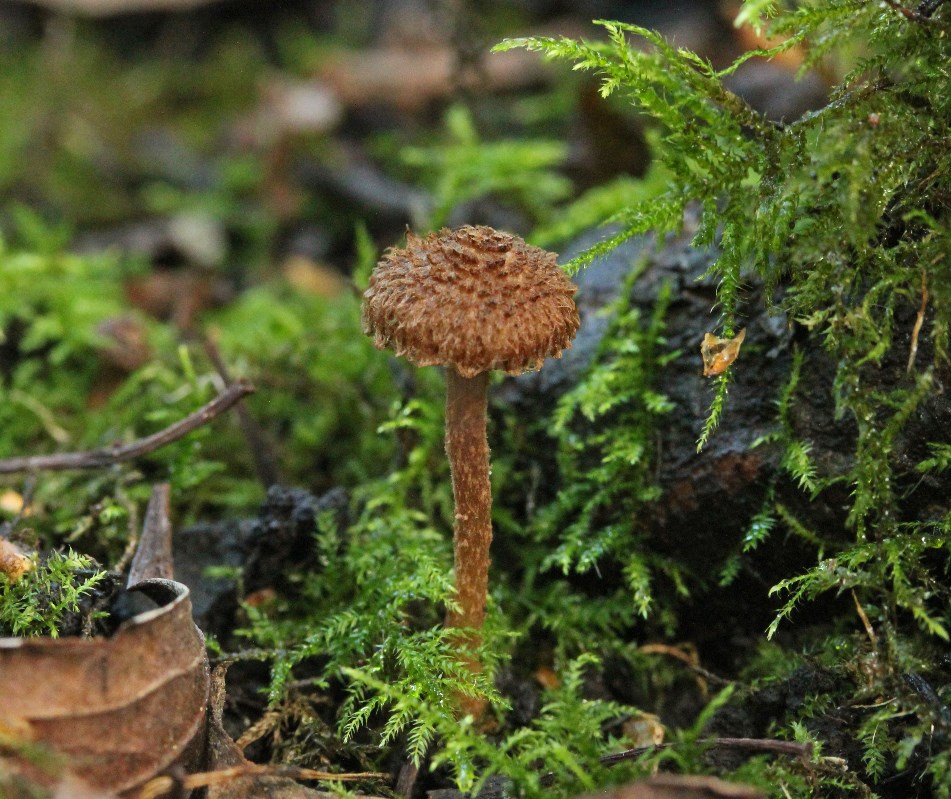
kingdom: Fungi
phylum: Basidiomycota
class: Agaricomycetes
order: Agaricales
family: Inocybaceae
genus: Inocybe
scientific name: Inocybe cincinnata
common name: lillabladet trævlhat
